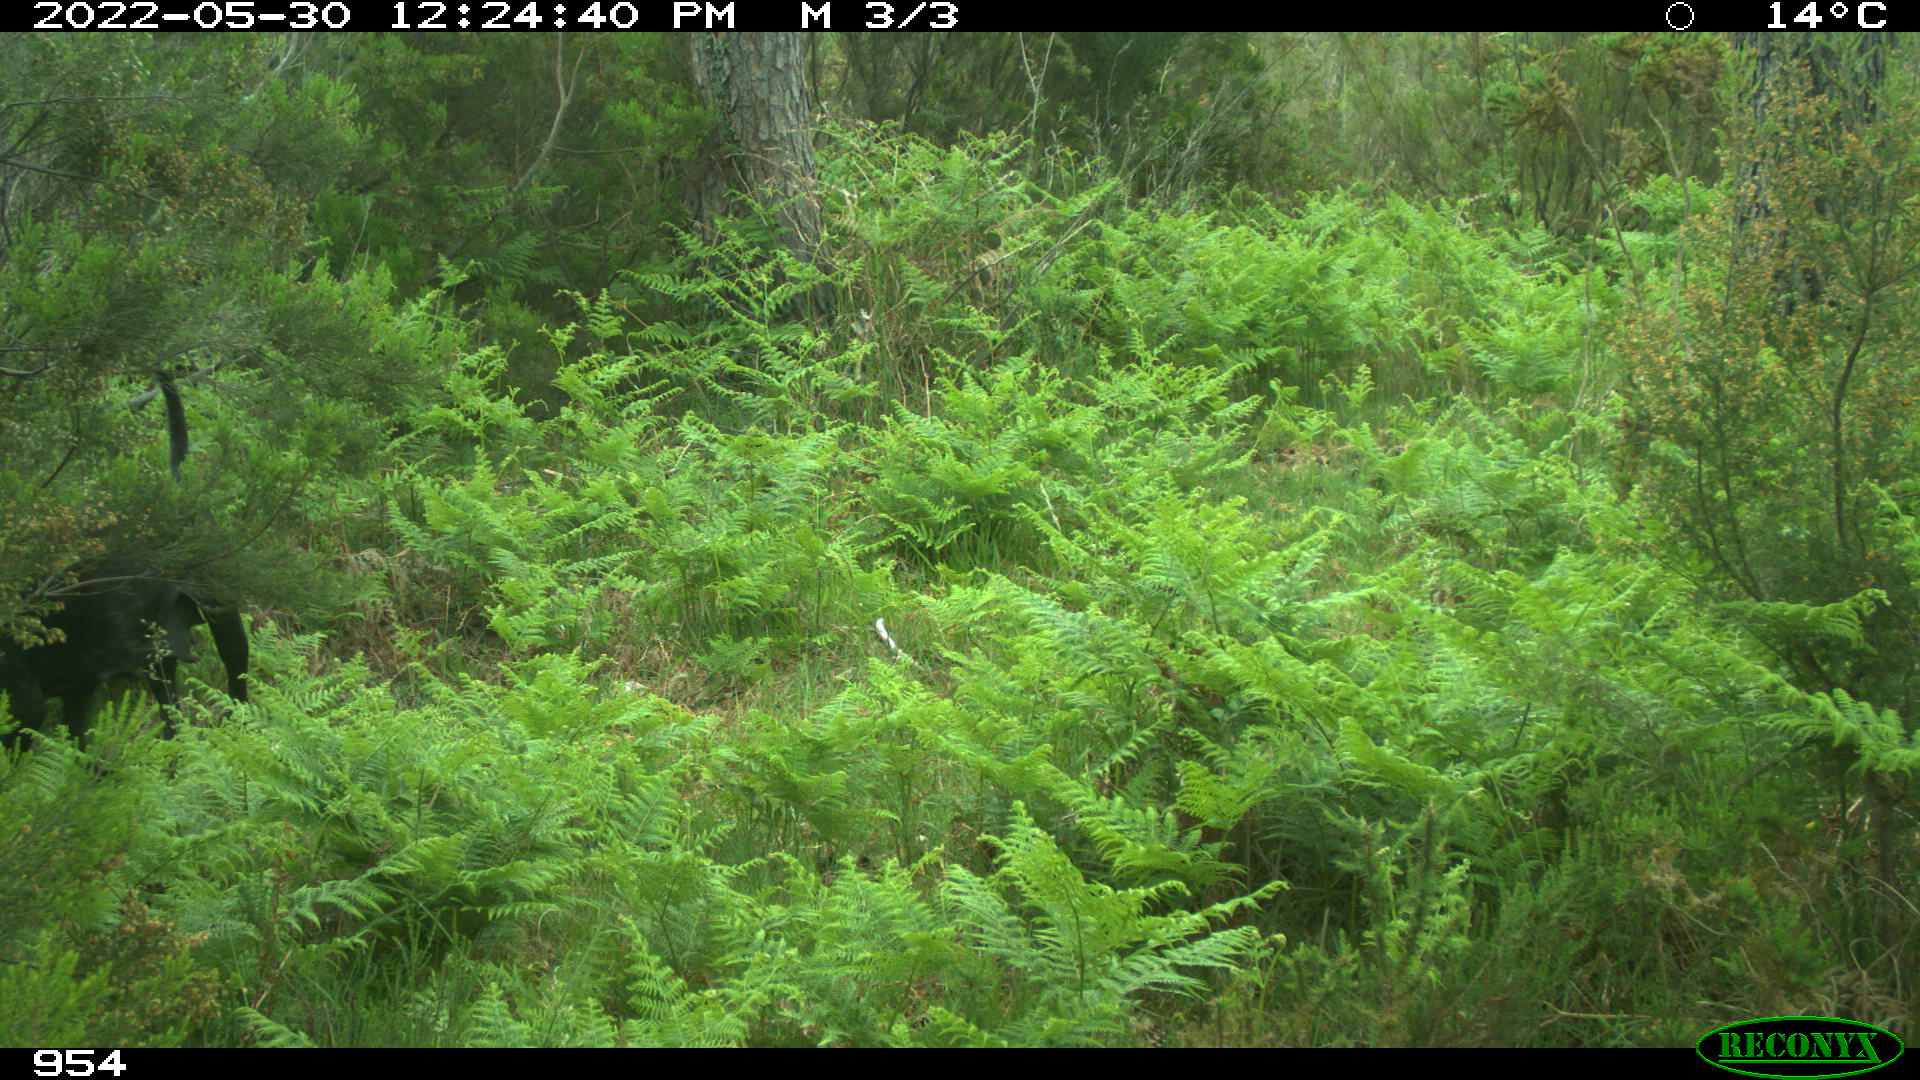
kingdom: Animalia
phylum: Chordata
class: Mammalia
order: Carnivora
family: Canidae
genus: Canis
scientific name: Canis lupus
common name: Gray wolf
